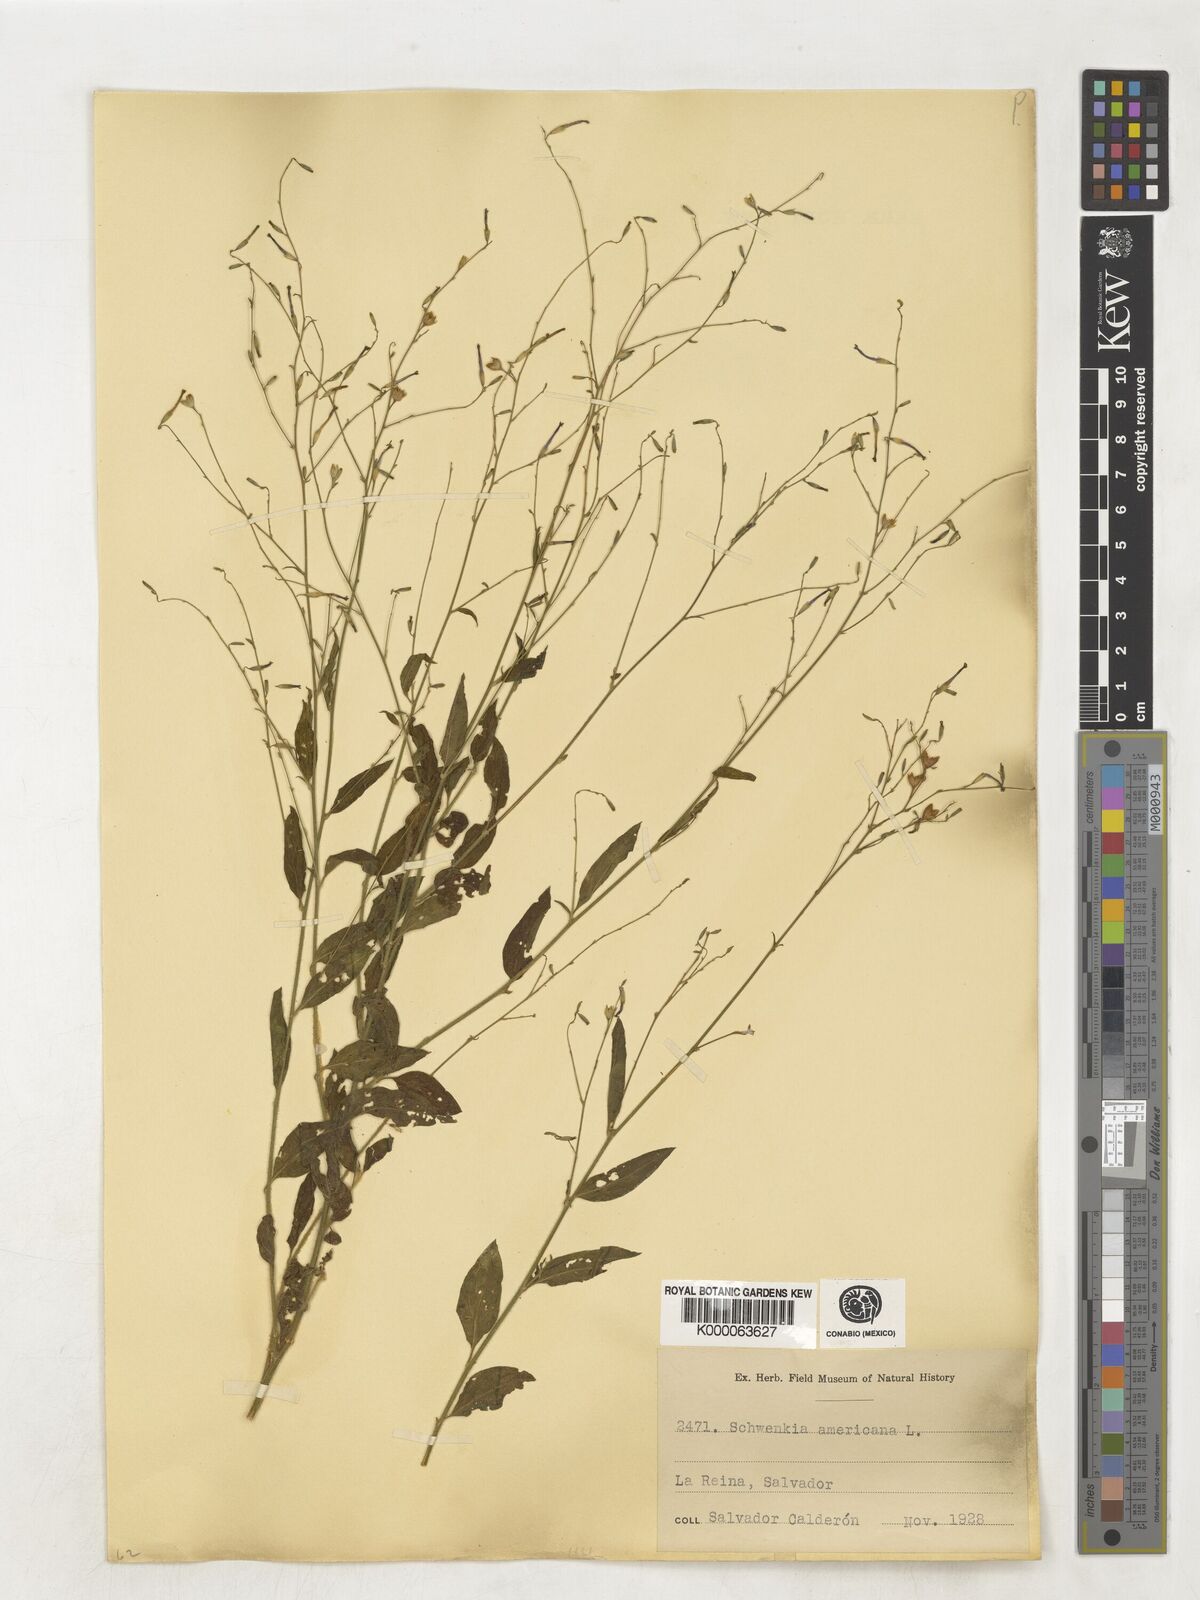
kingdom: Plantae
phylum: Tracheophyta
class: Magnoliopsida
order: Solanales
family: Solanaceae
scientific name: Solanaceae
